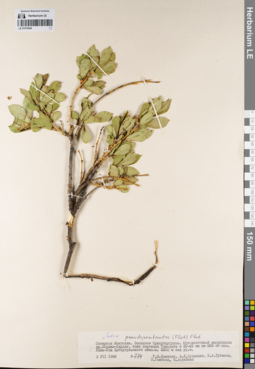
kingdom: Plantae
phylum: Tracheophyta
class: Magnoliopsida
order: Malpighiales
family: Salicaceae
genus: Salix
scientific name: Salix pseudopentandra
